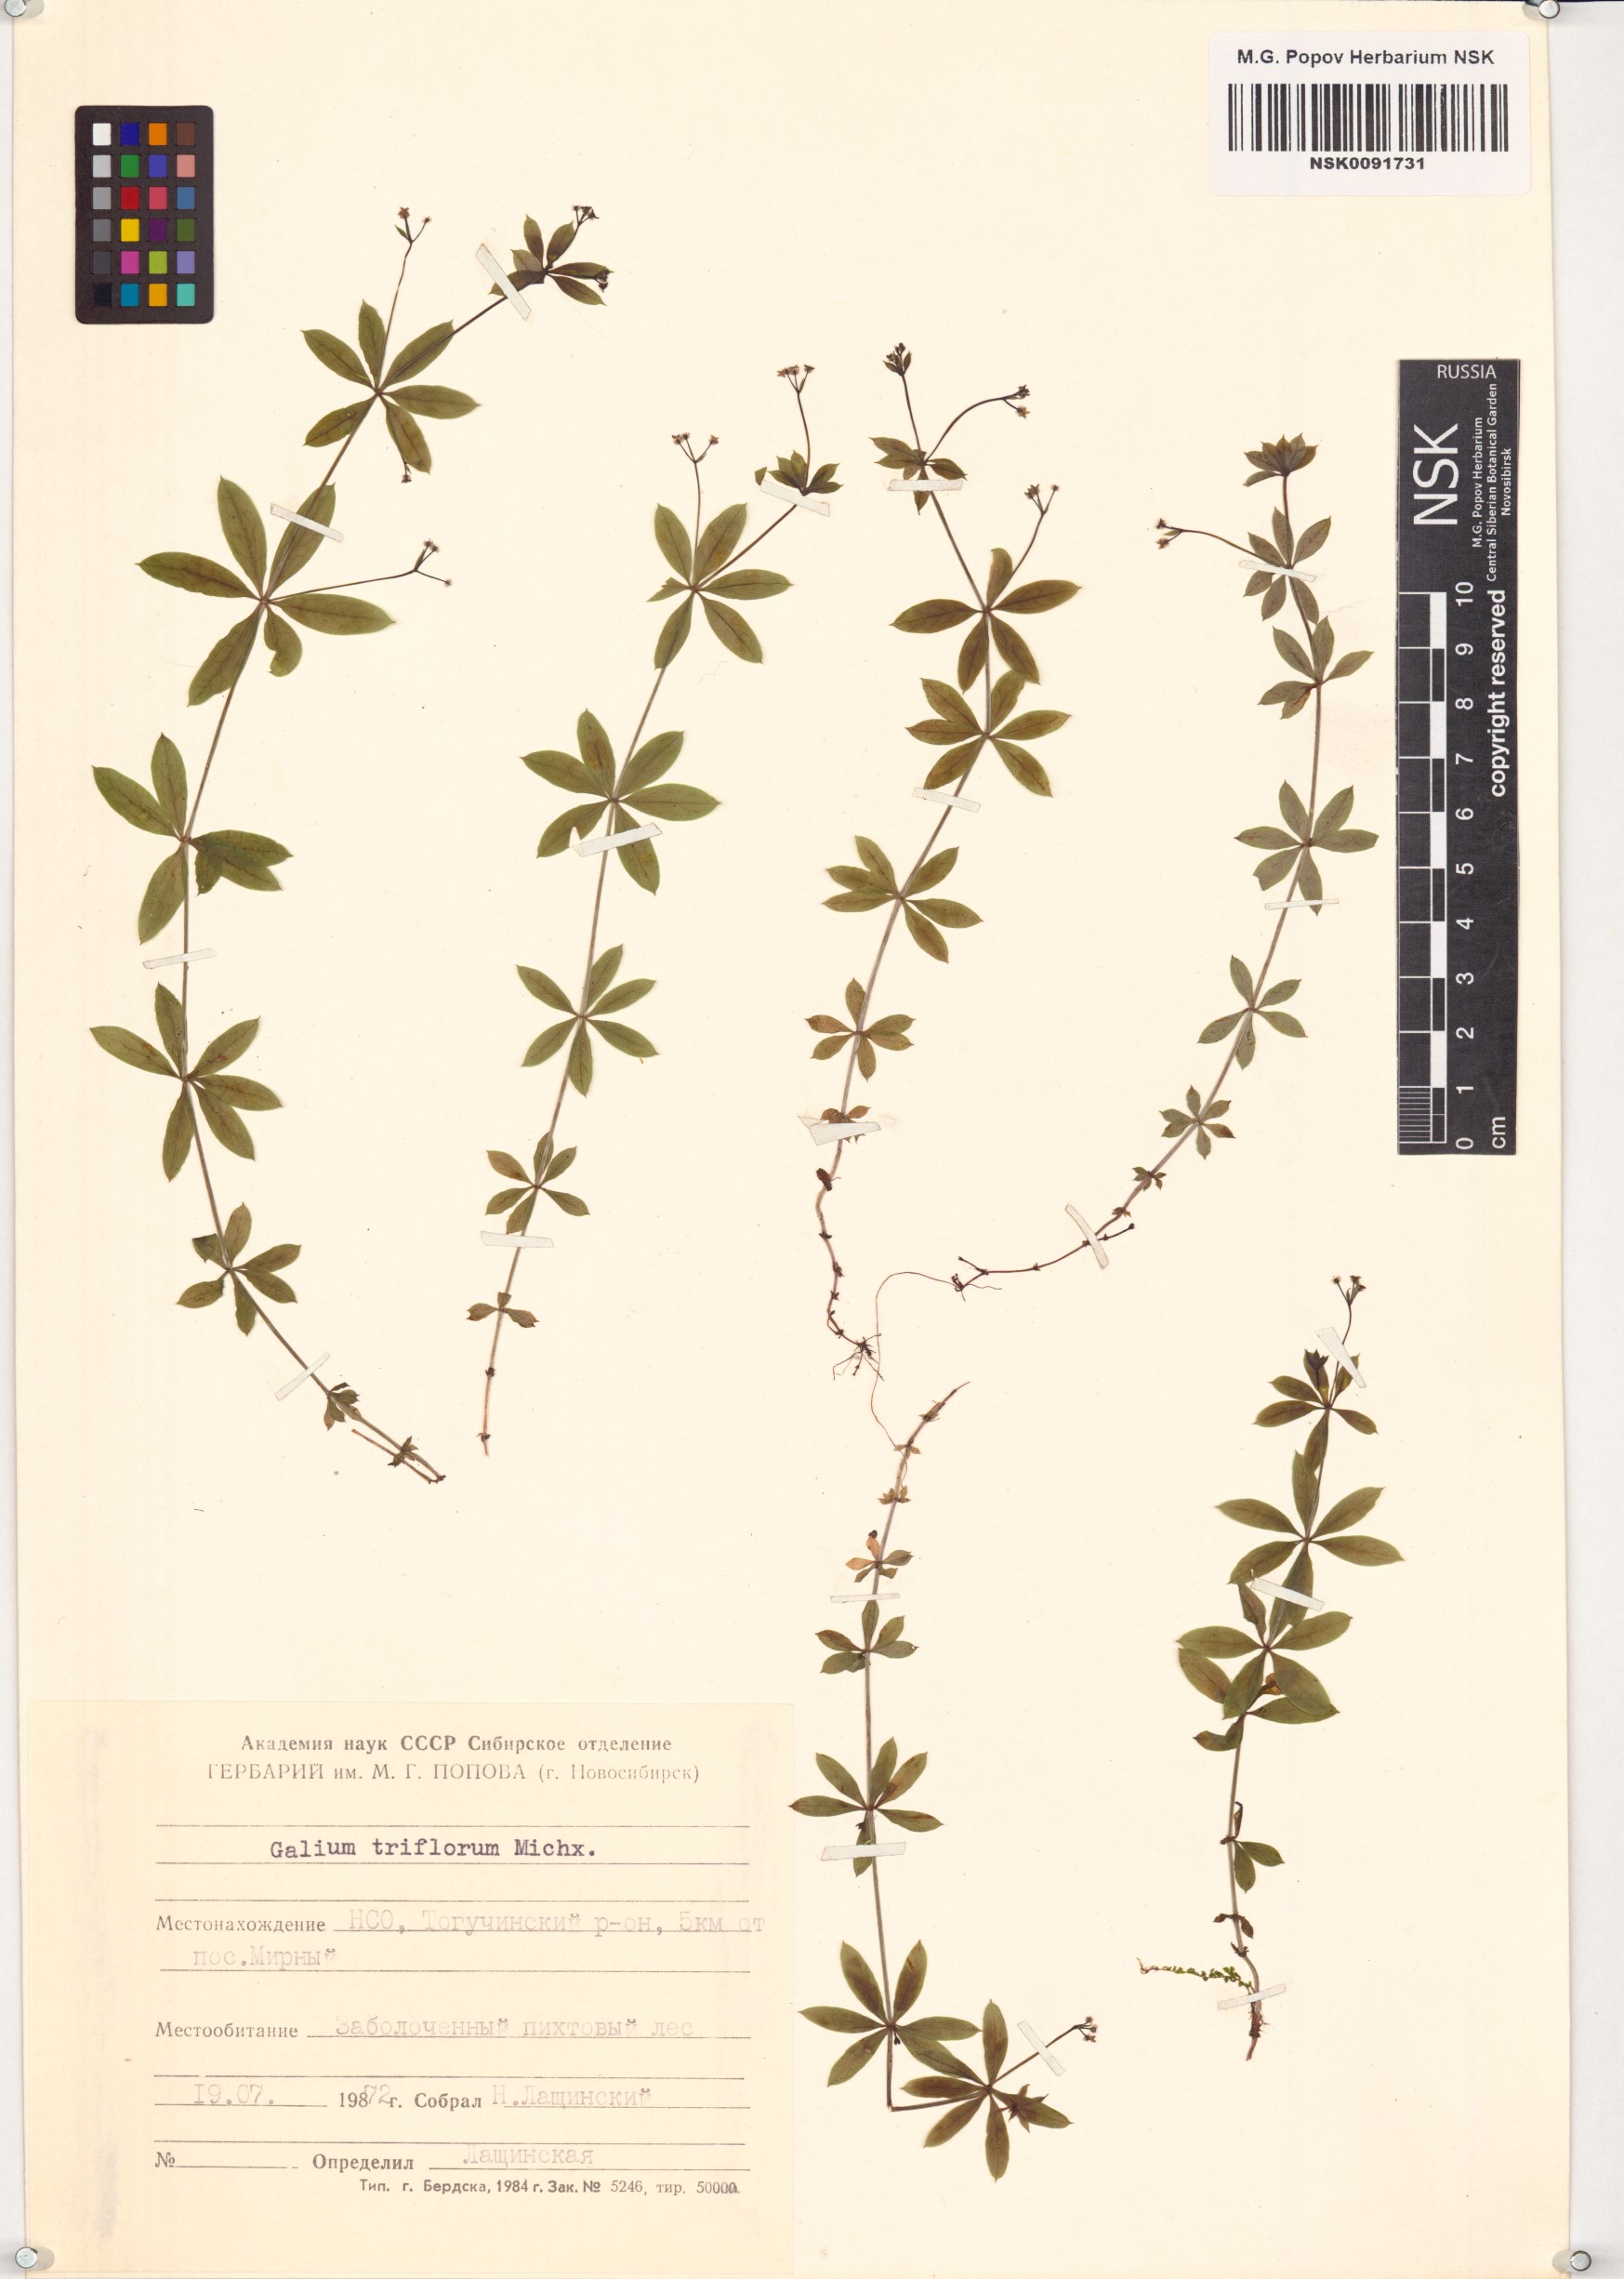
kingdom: Plantae
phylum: Tracheophyta
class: Magnoliopsida
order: Gentianales
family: Rubiaceae
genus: Galium
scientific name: Galium triflorum
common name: Fragrant bedstraw
